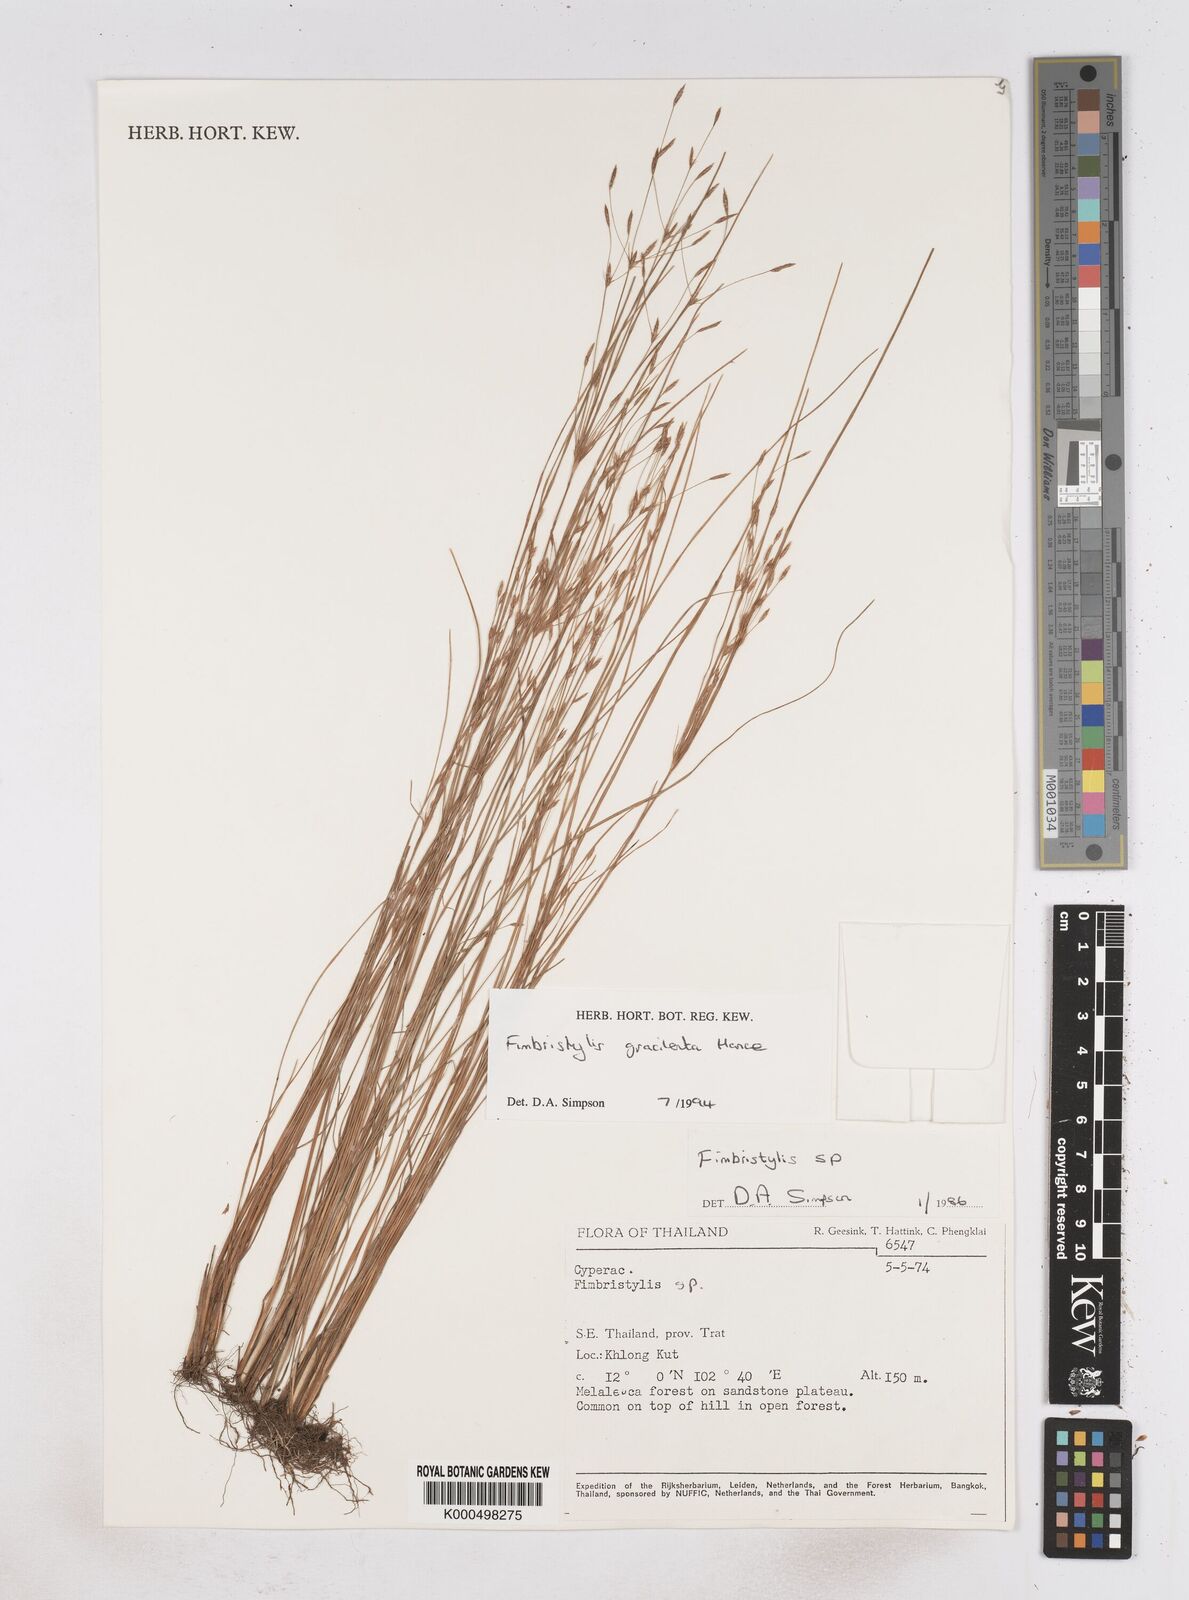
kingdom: Plantae
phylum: Tracheophyta
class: Liliopsida
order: Poales
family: Cyperaceae
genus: Fimbristylis
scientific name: Fimbristylis gracilenta
